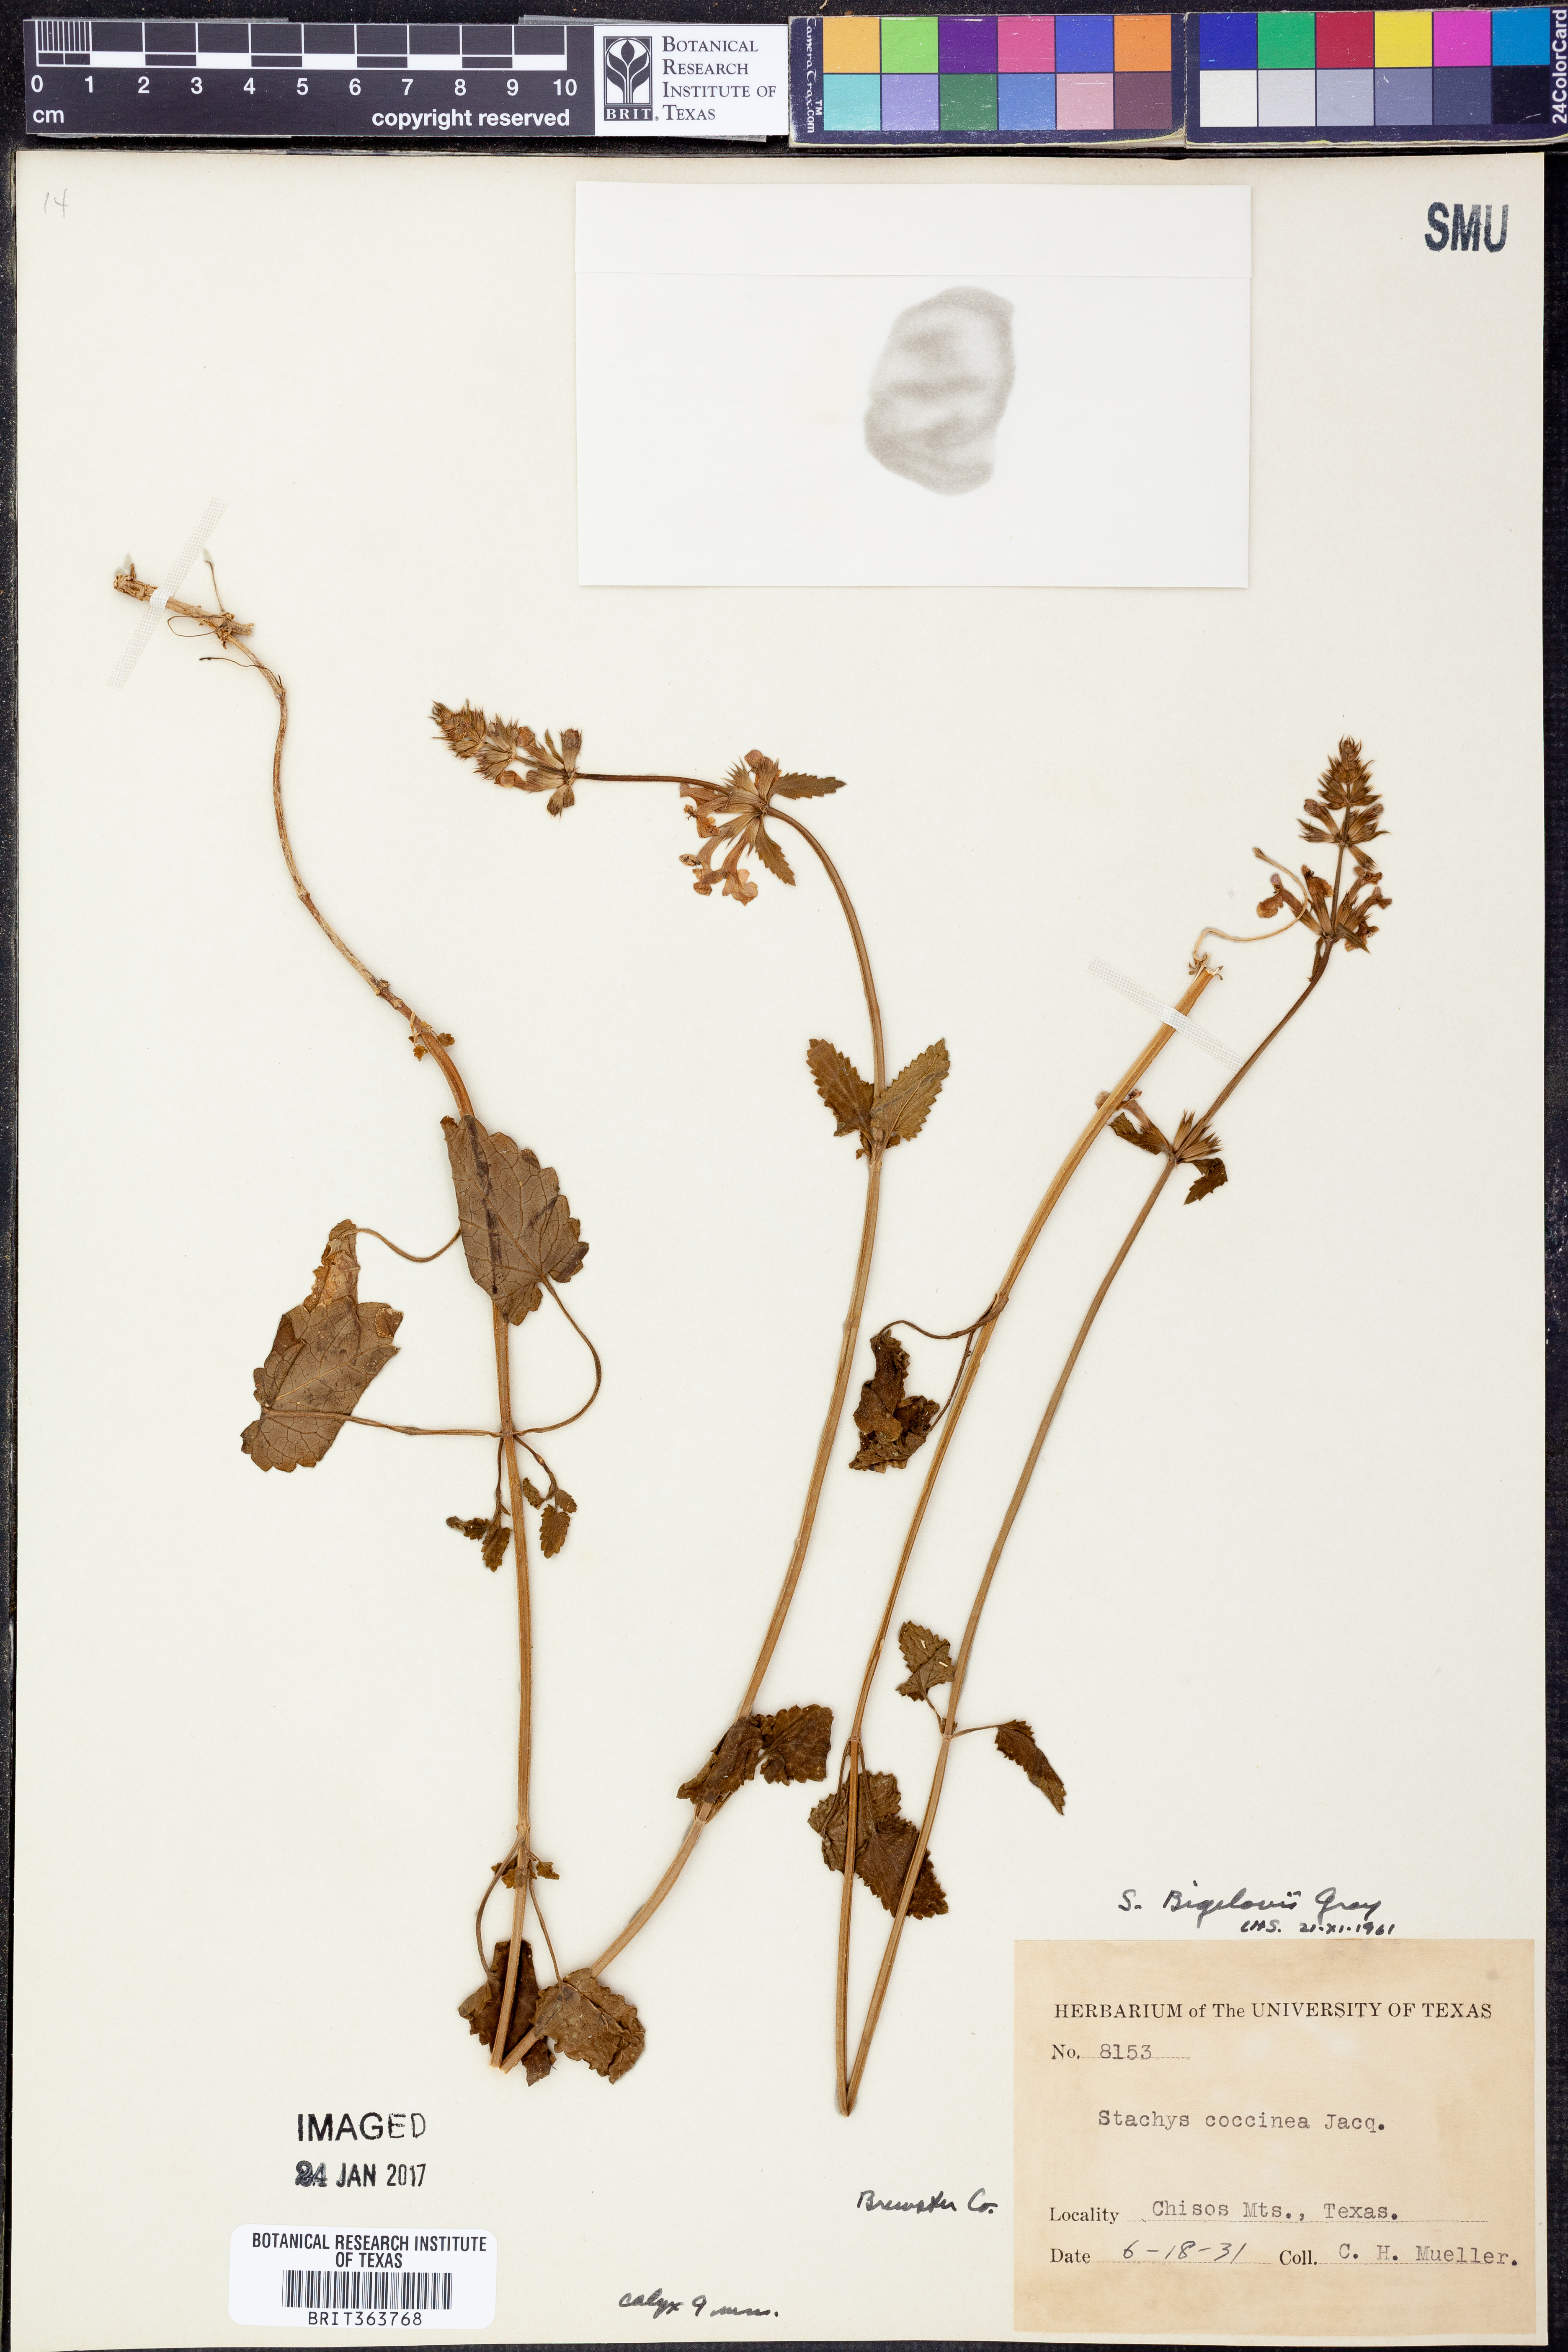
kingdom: Plantae
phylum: Tracheophyta
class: Magnoliopsida
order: Lamiales
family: Lamiaceae
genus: Stachys
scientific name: Stachys bigelovii
